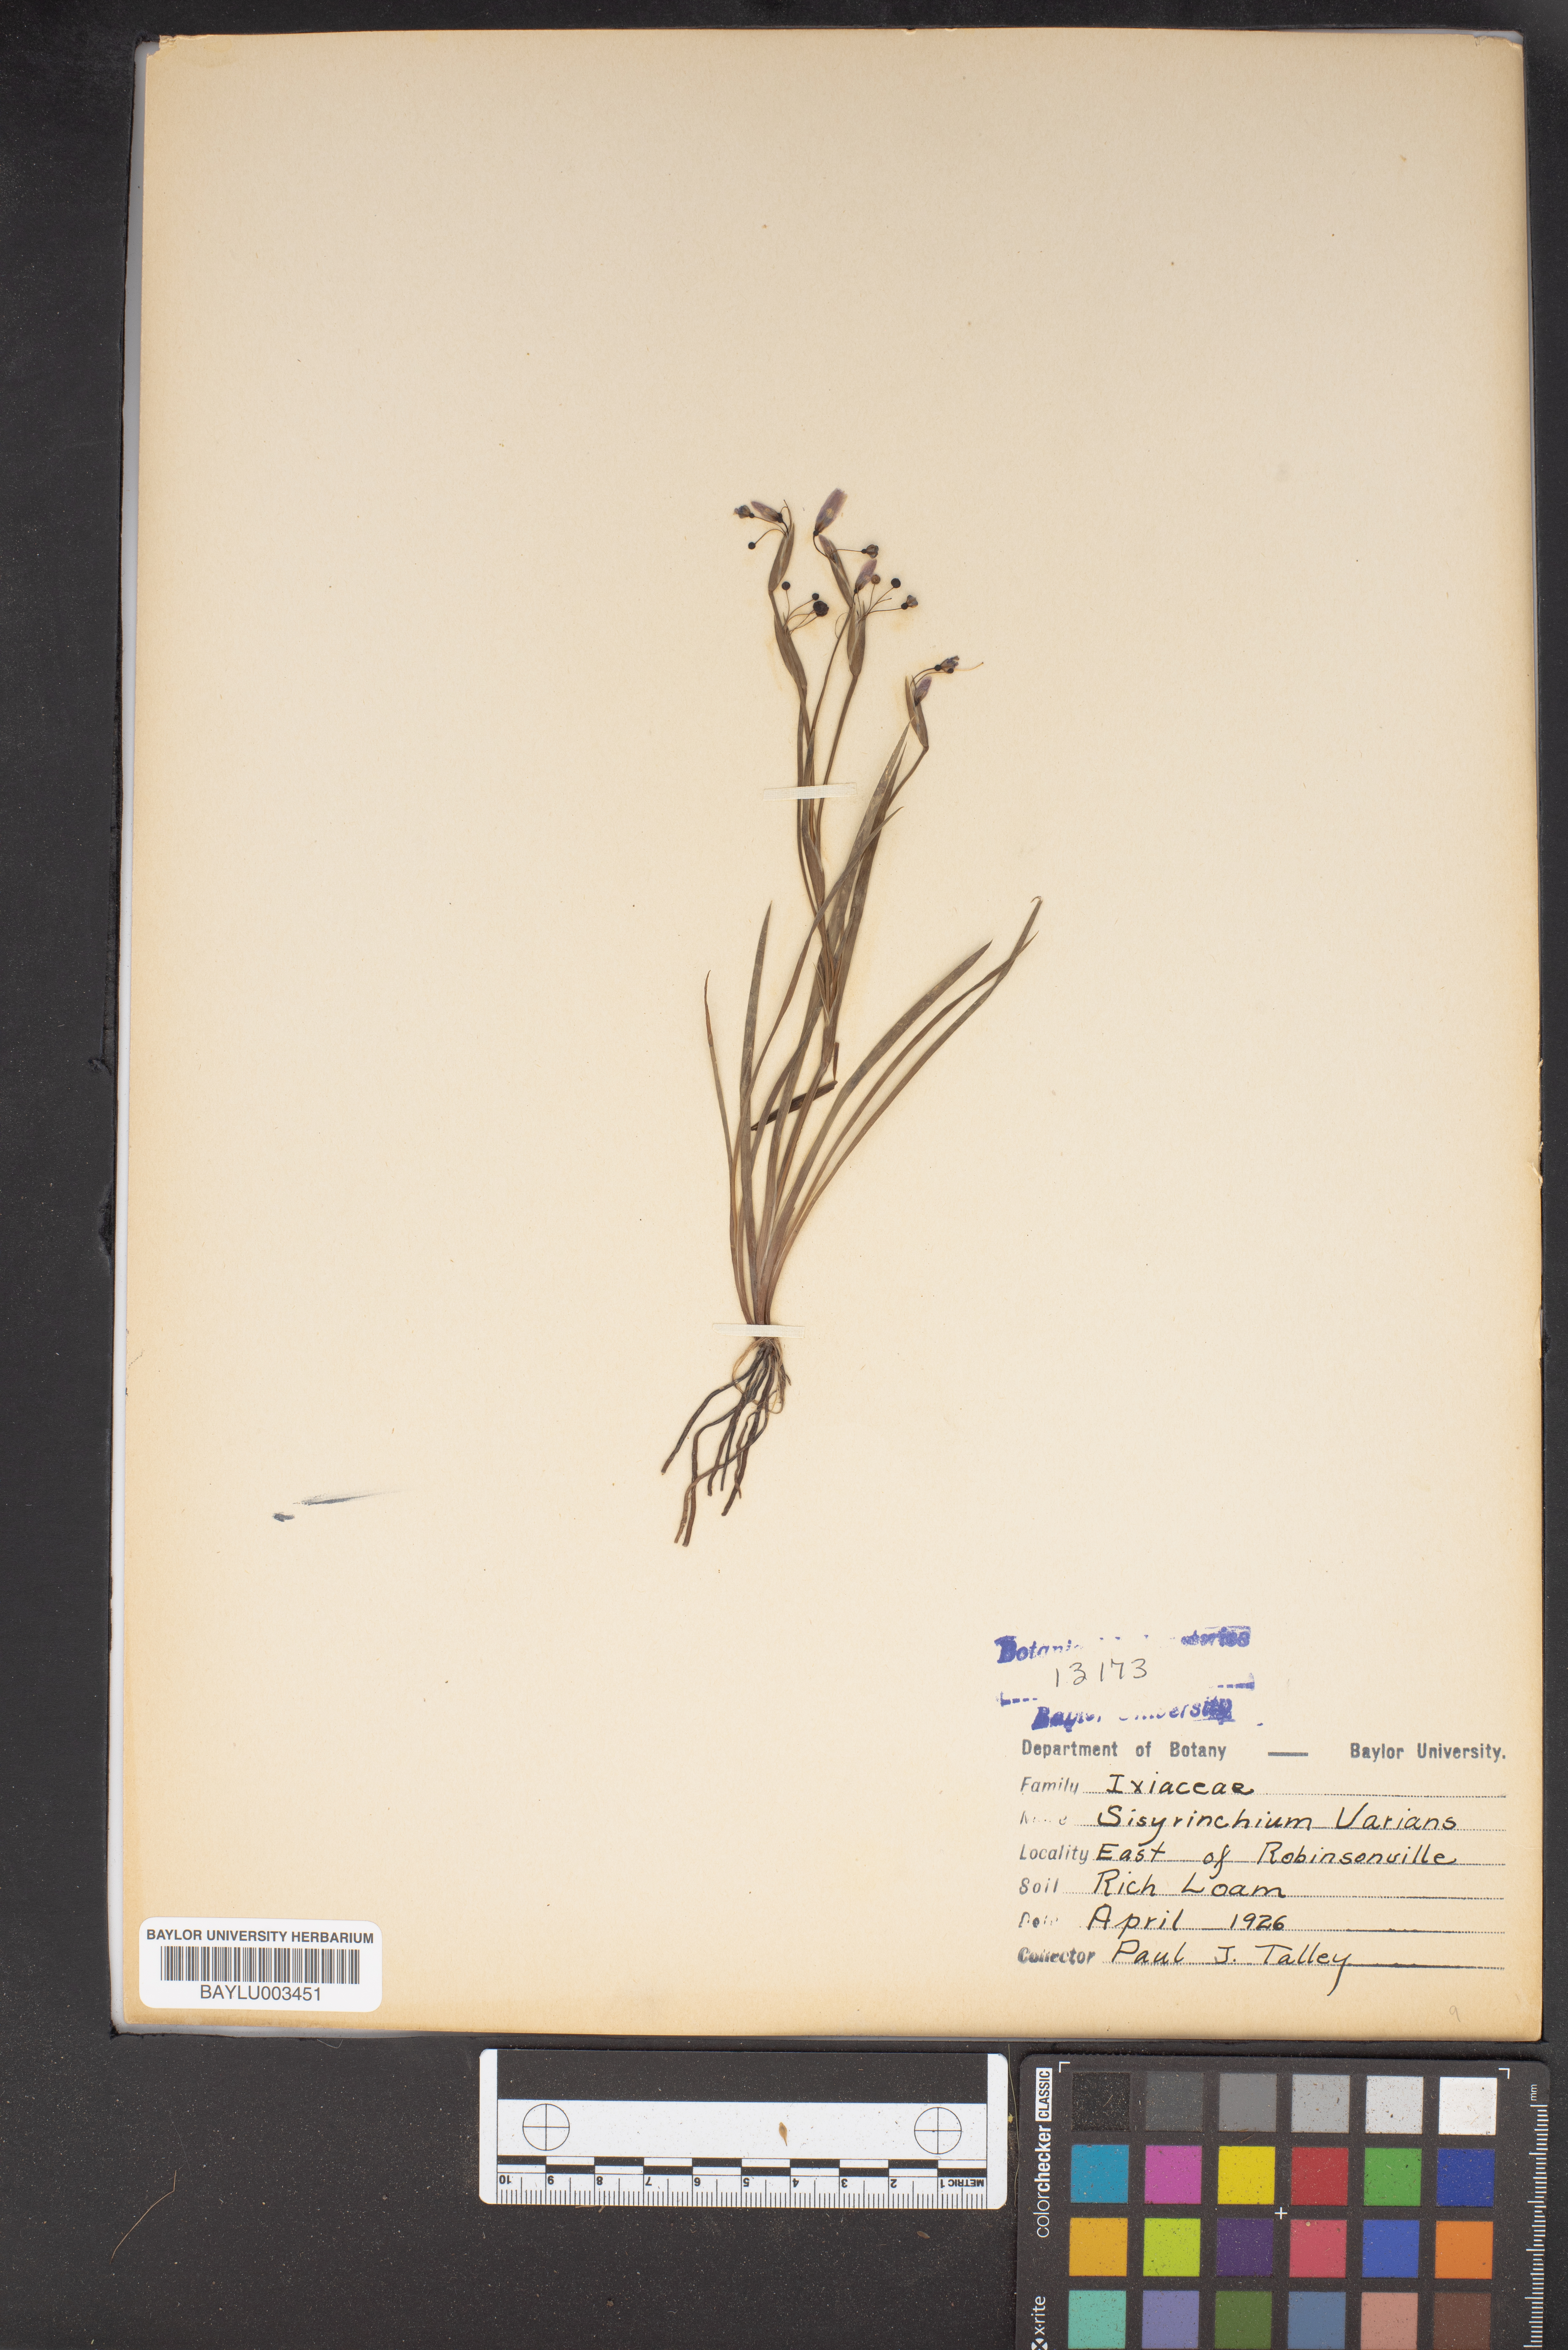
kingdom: Plantae
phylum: Tracheophyta
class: Liliopsida
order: Asparagales
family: Iridaceae
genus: Sisyrinchium
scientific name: Sisyrinchium pruinosum
